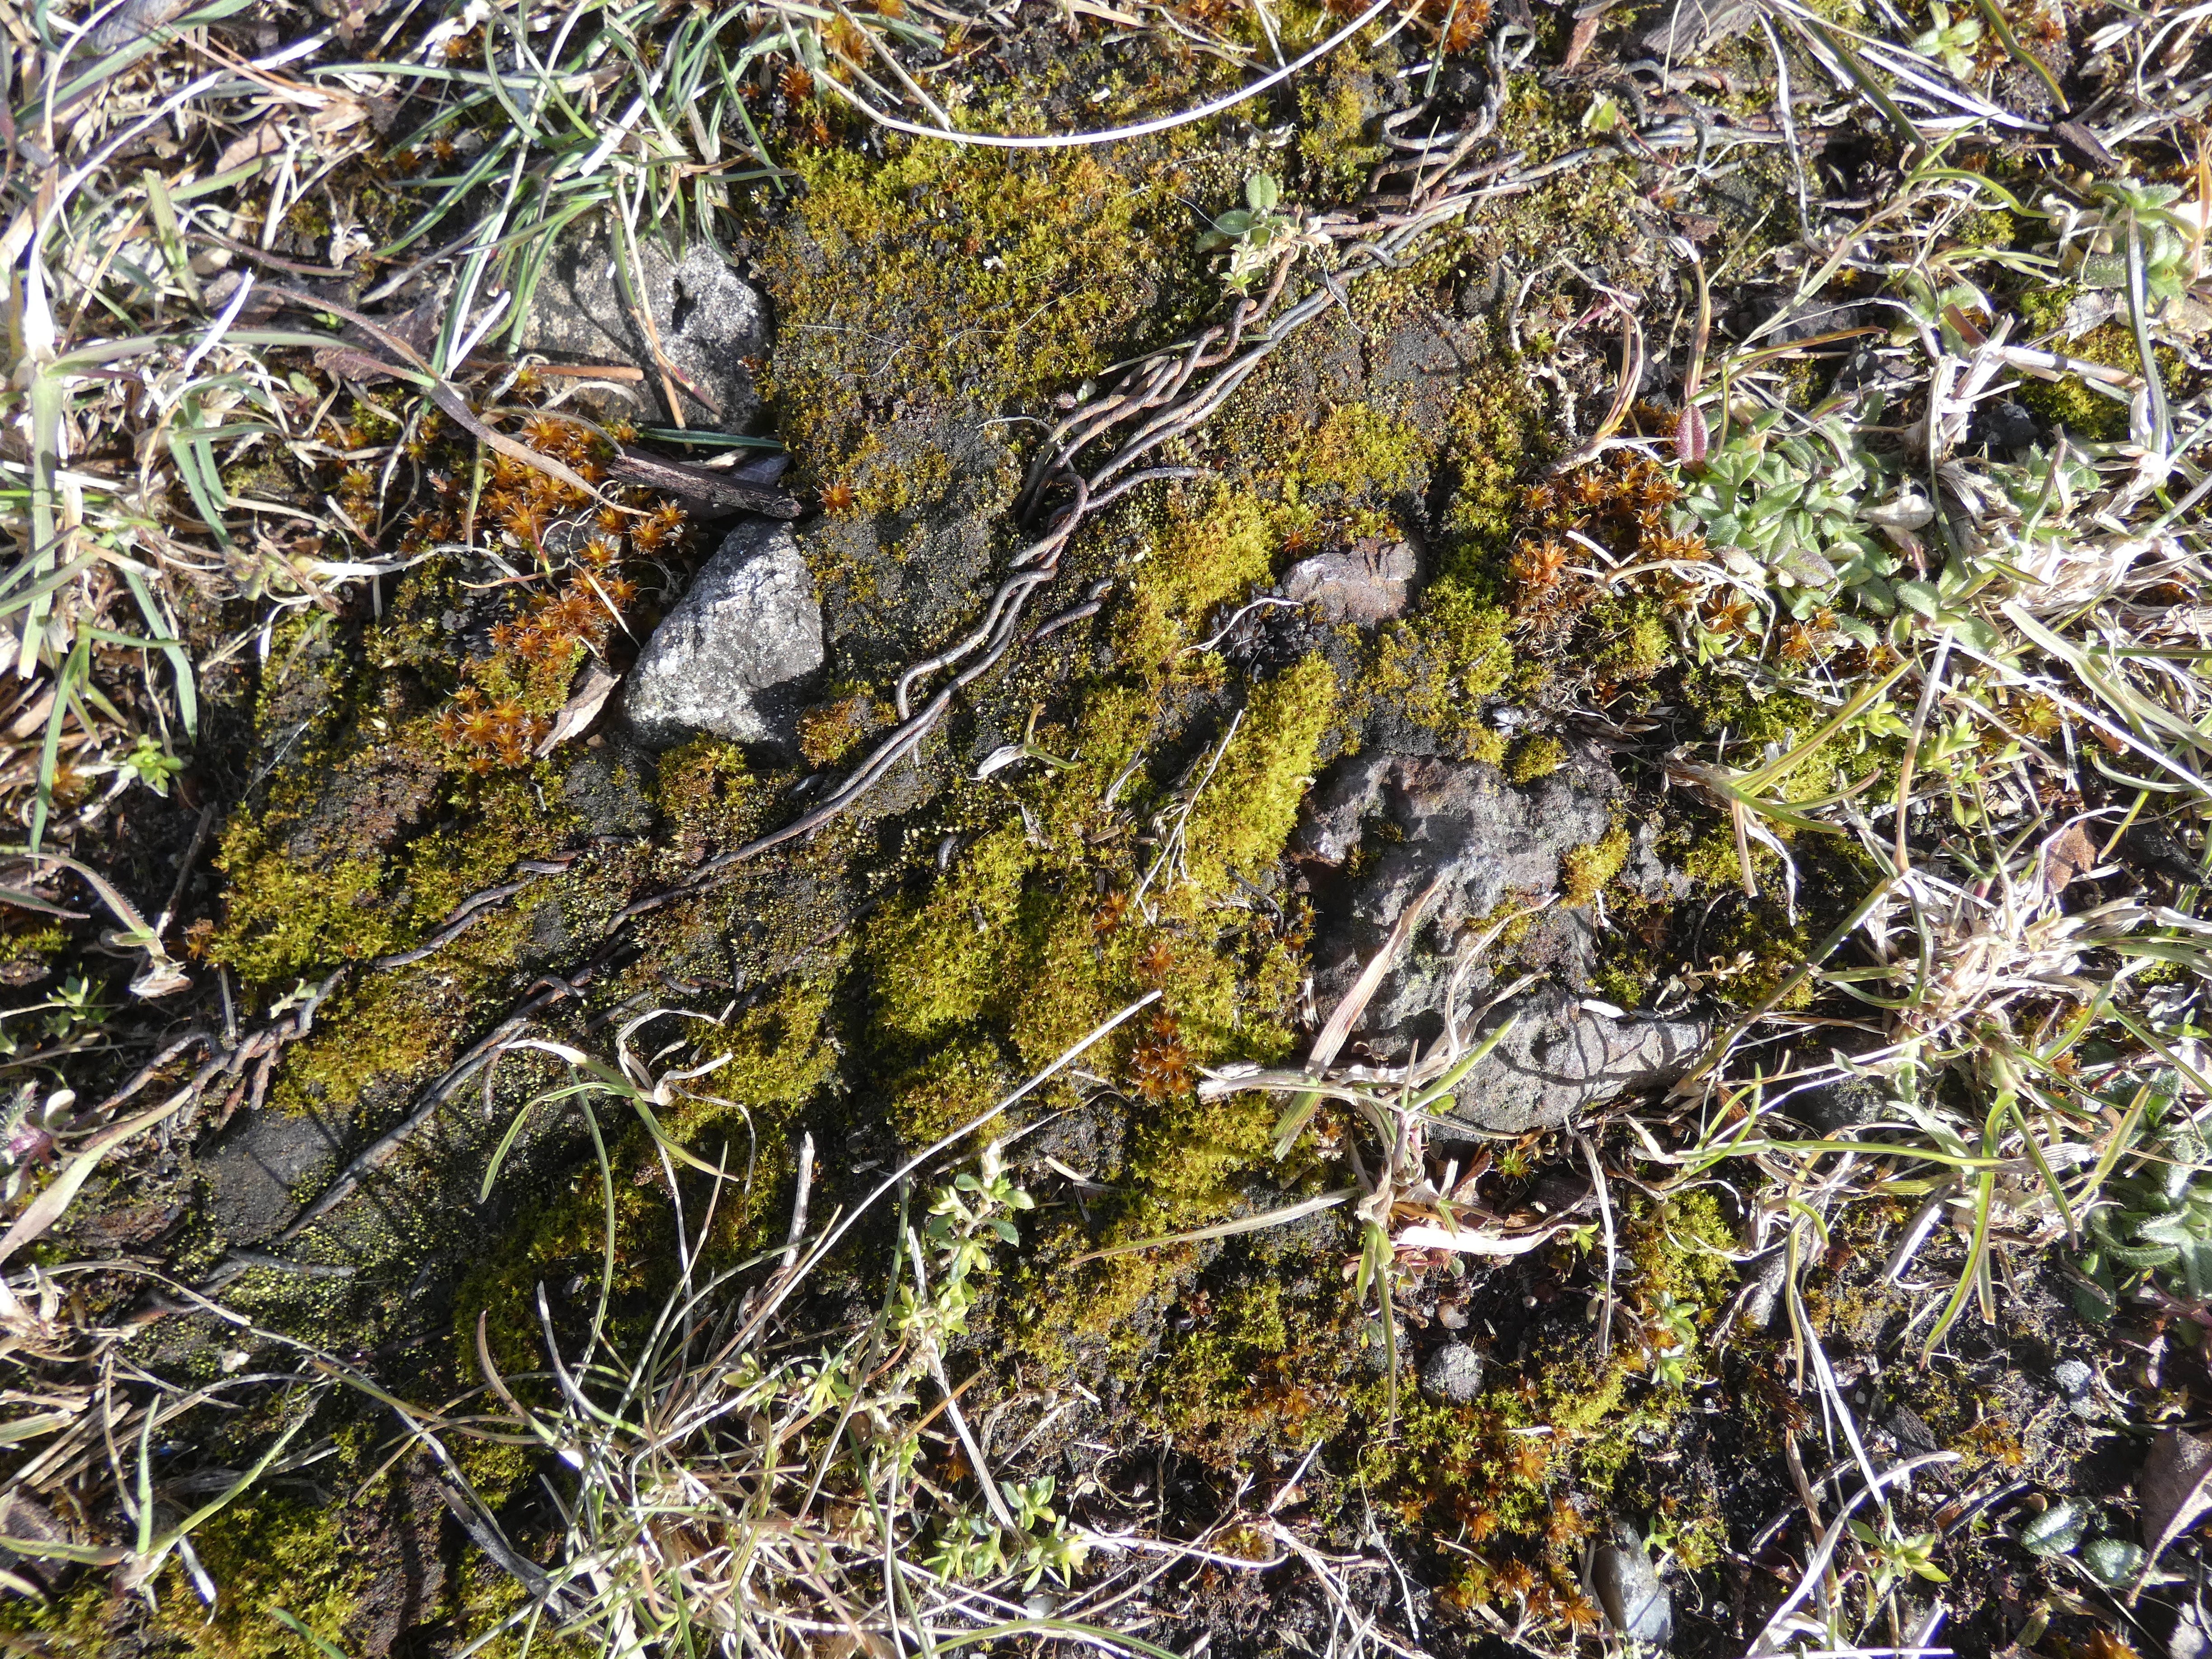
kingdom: Plantae
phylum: Bryophyta
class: Bryopsida
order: Pottiales
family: Pottiaceae
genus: Syntrichia
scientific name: Syntrichia ruralis
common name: Tag-hårstjerne
